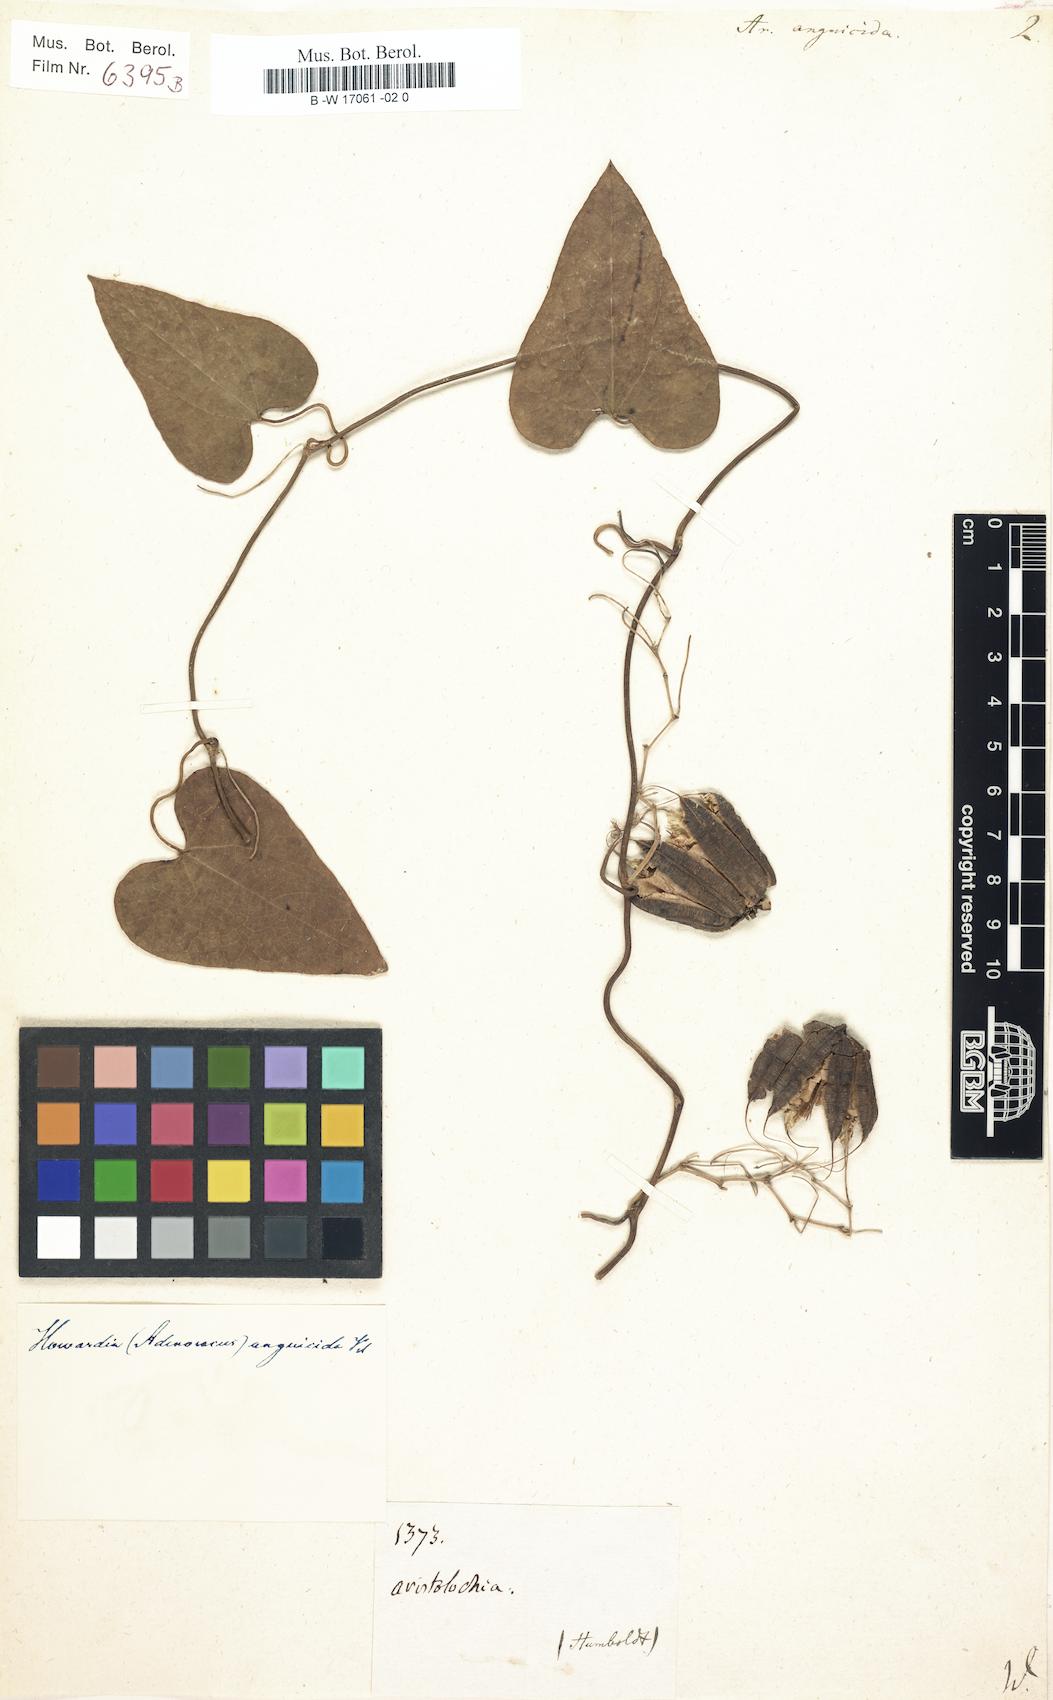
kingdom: Plantae
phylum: Tracheophyta
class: Magnoliopsida
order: Piperales
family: Aristolochiaceae
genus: Aristolochia
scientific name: Aristolochia anguicida
